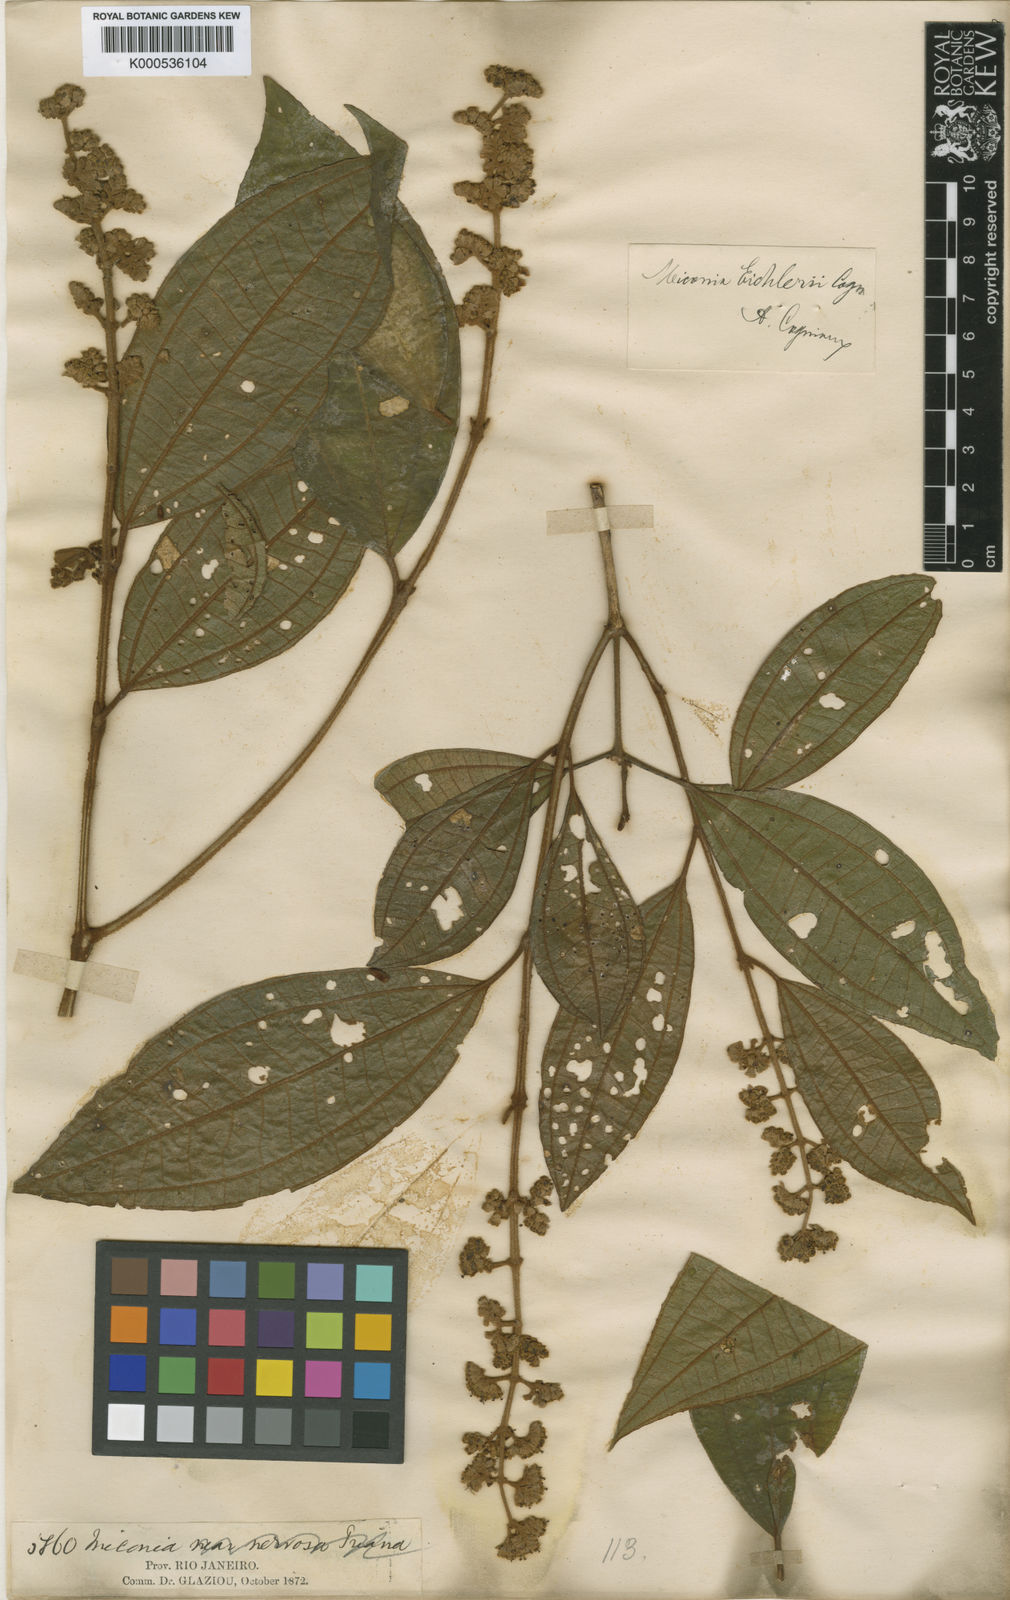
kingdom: Plantae
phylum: Tracheophyta
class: Magnoliopsida
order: Myrtales
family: Melastomataceae
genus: Miconia
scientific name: Miconia valtheri
